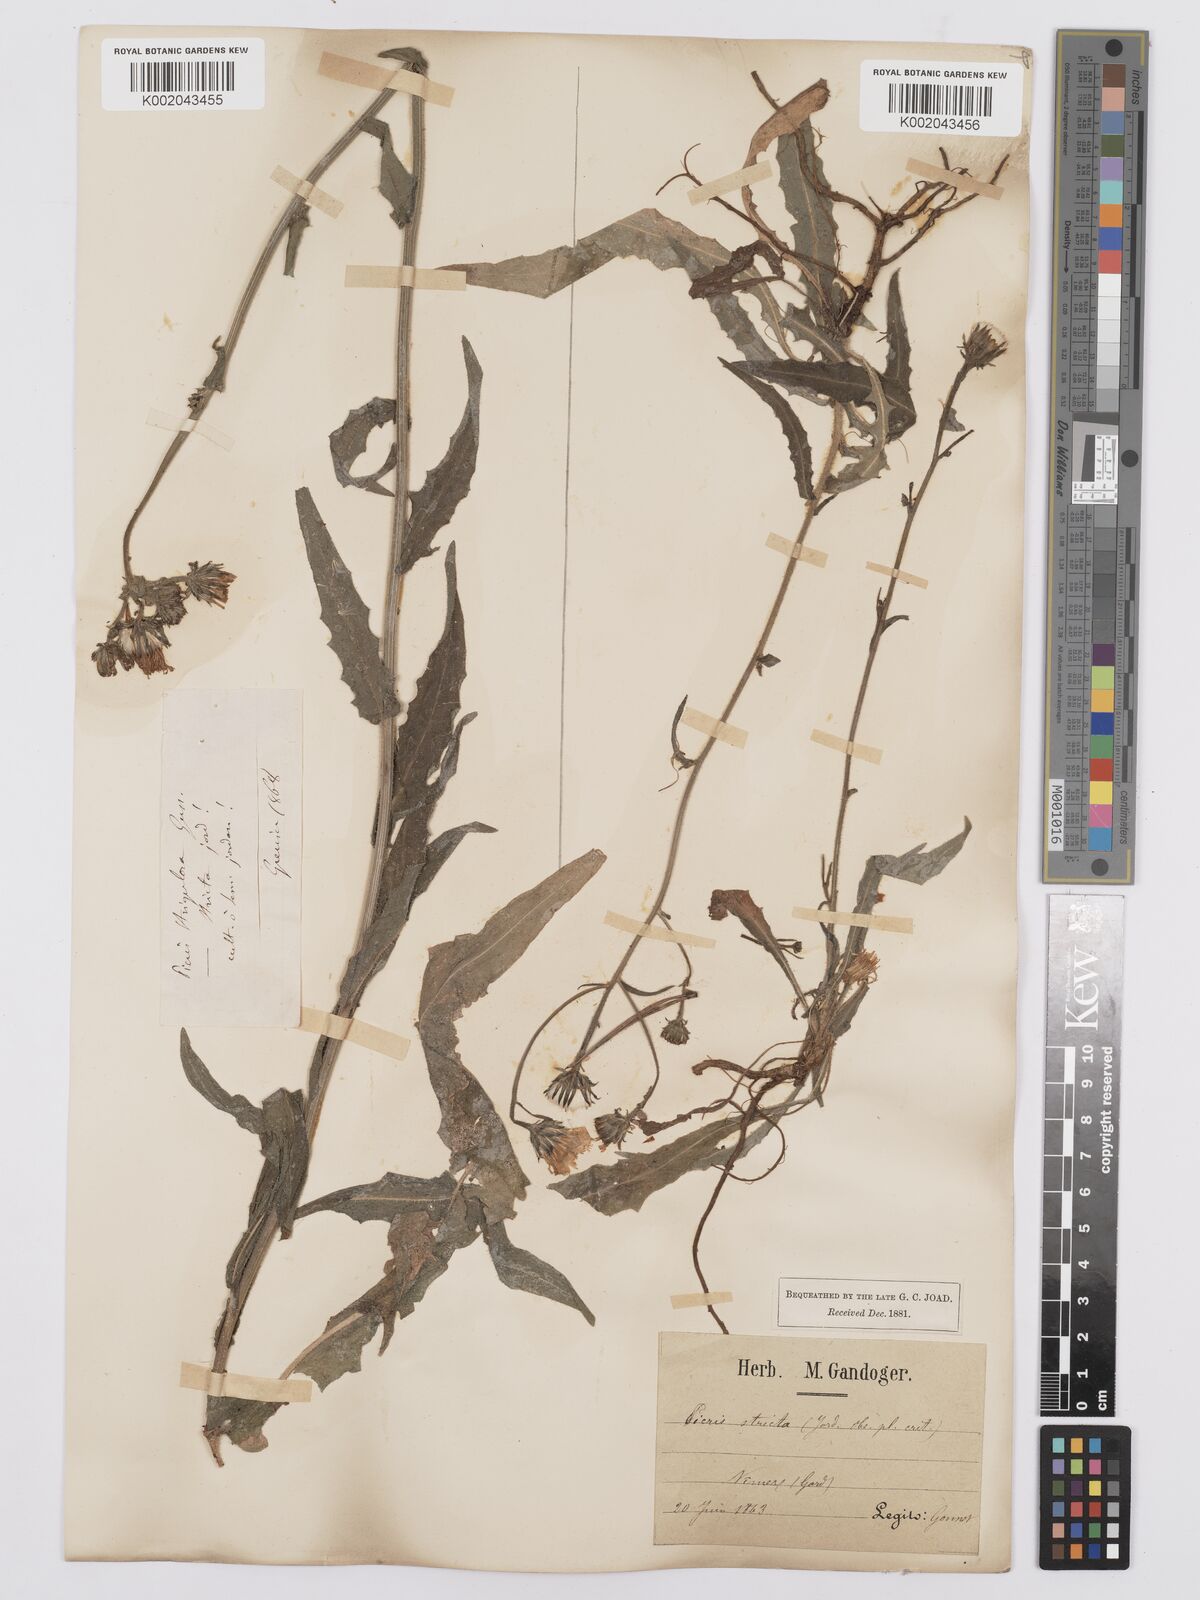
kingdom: Plantae
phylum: Tracheophyta
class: Magnoliopsida
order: Asterales
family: Asteraceae
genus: Picris
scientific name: Picris hieracioides
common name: Hawkweed oxtongue
